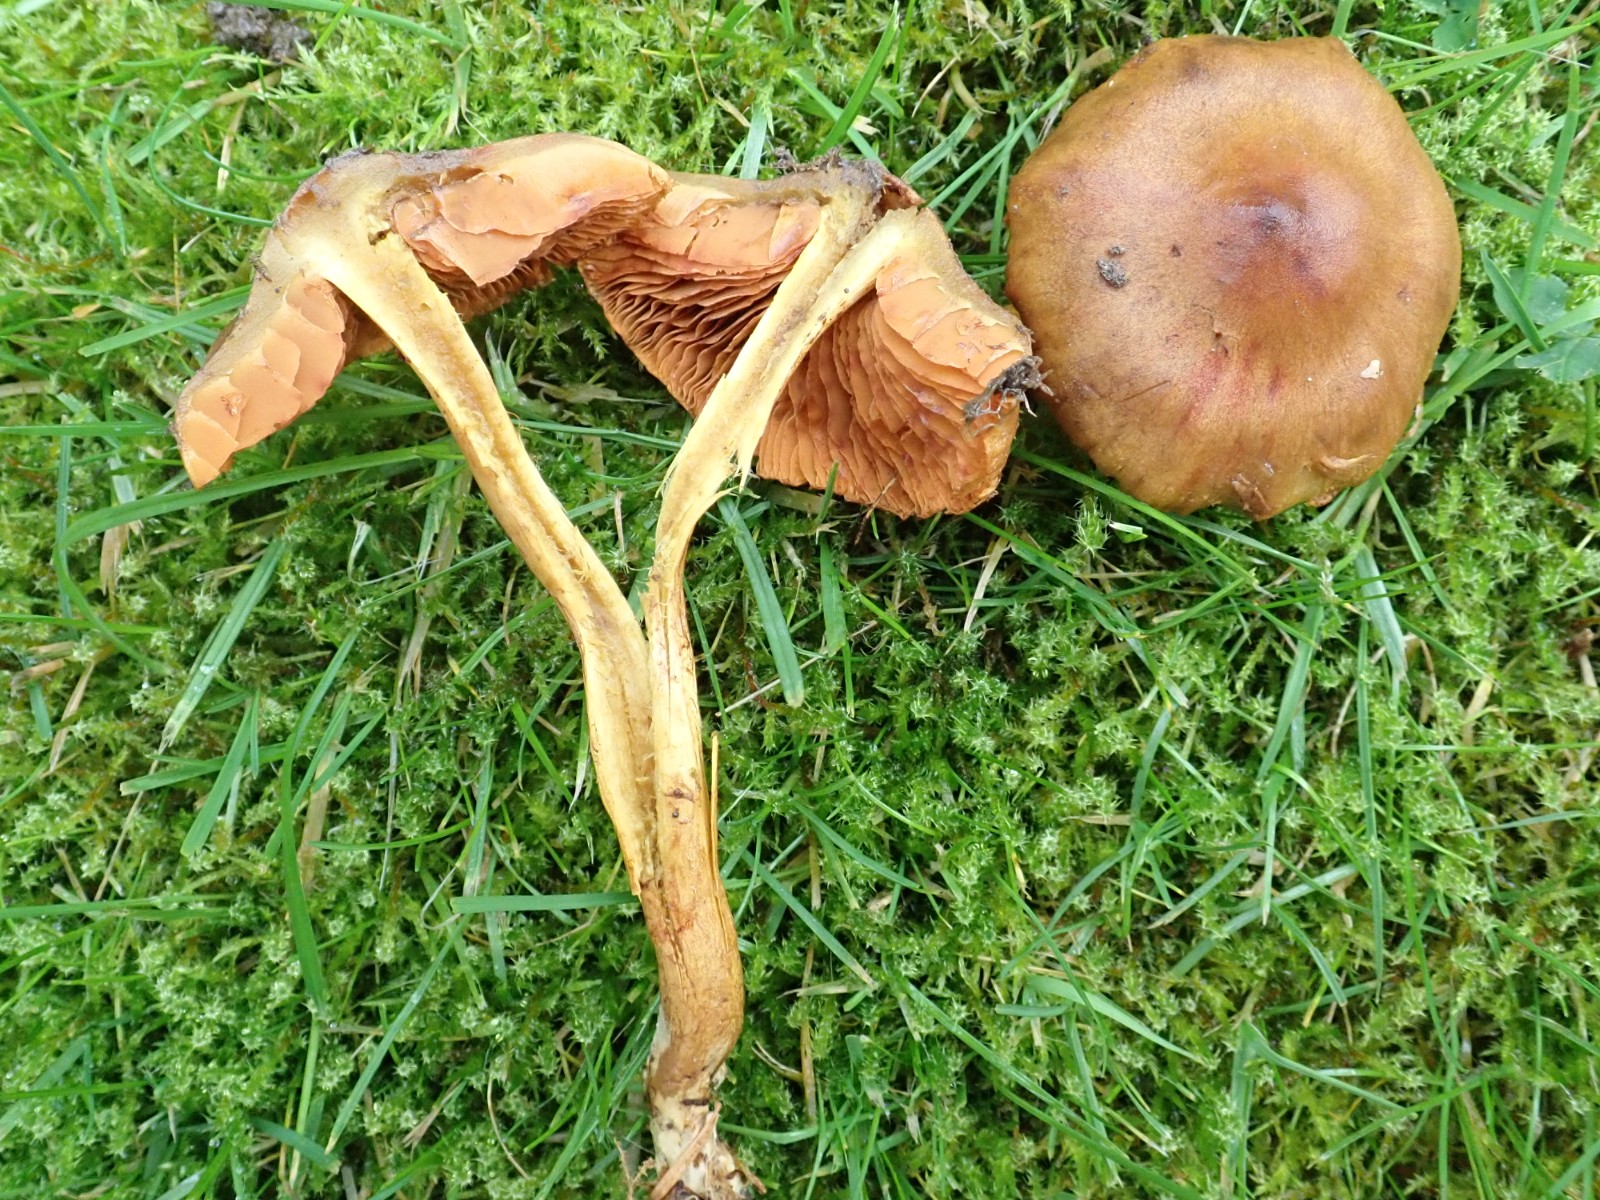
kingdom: Fungi
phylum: Basidiomycota
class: Agaricomycetes
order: Agaricales
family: Cortinariaceae
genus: Cortinarius
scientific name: Cortinarius malicorius
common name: grønkødet slørhat
